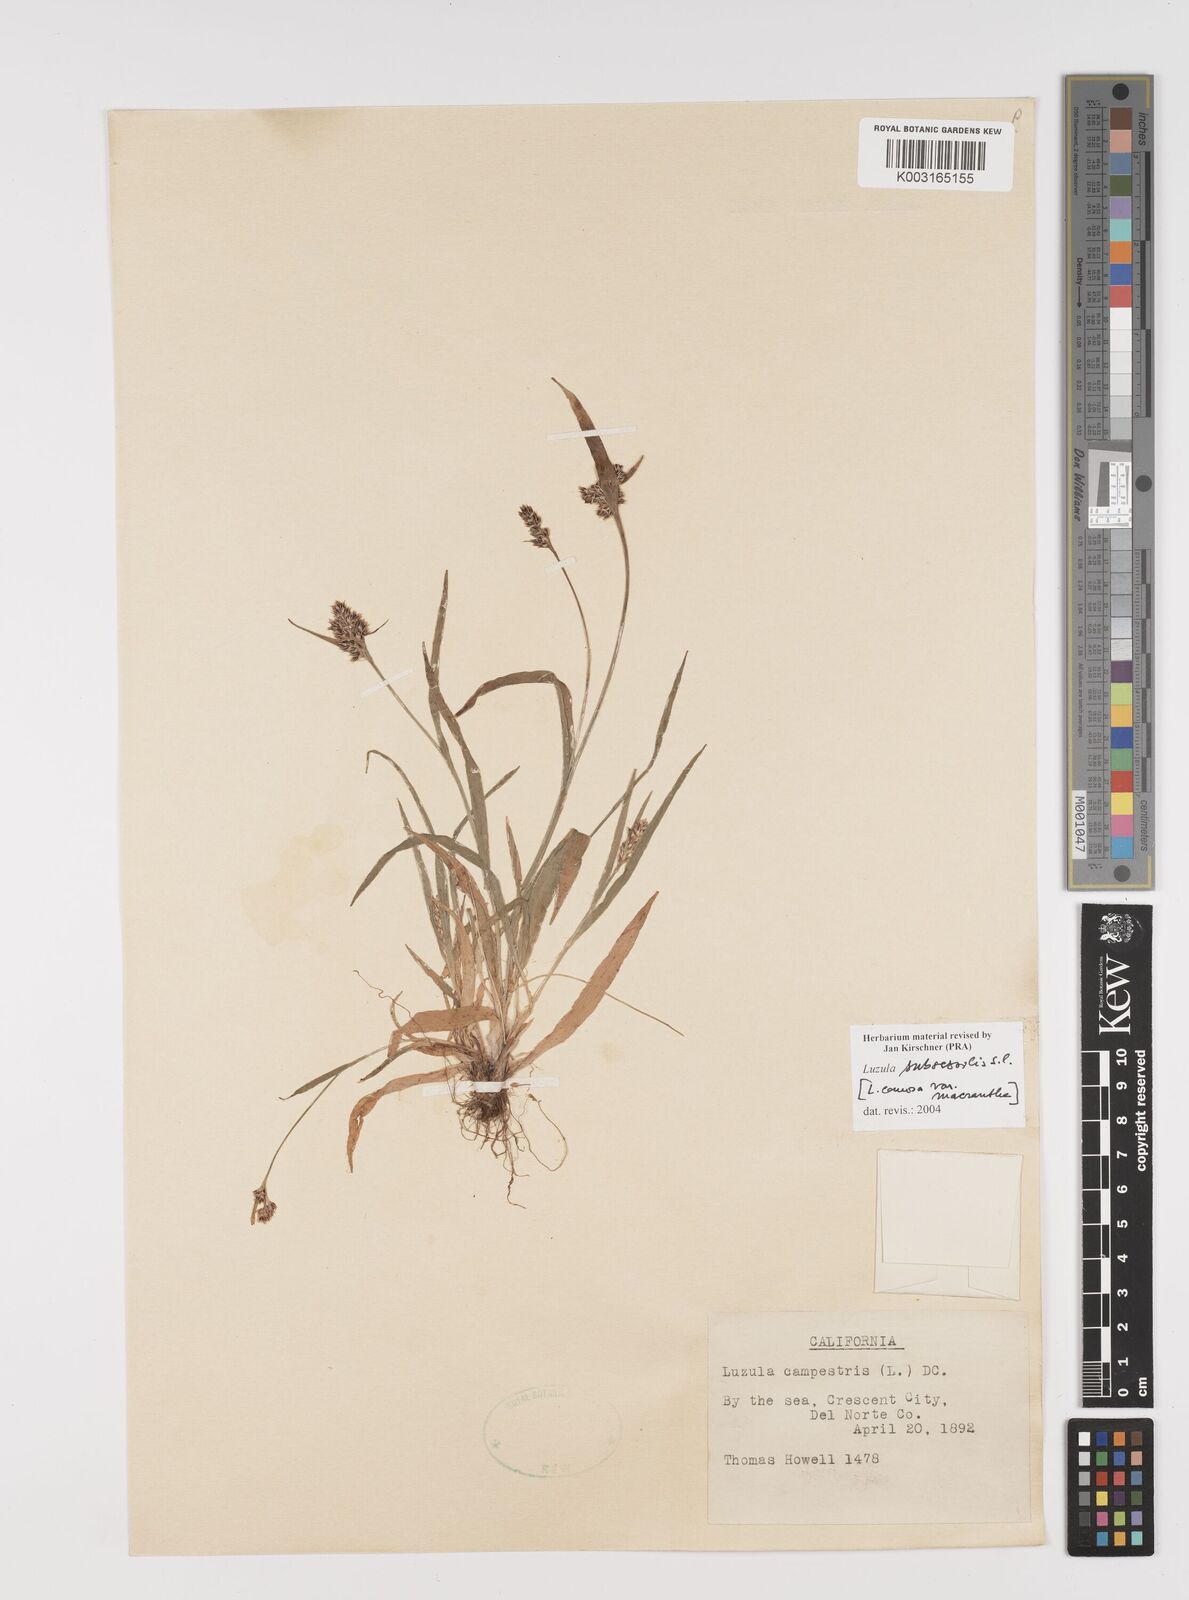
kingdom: Plantae
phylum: Tracheophyta
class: Liliopsida
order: Poales
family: Juncaceae
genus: Luzula
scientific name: Luzula macrantha
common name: Large-anthered woodrush
